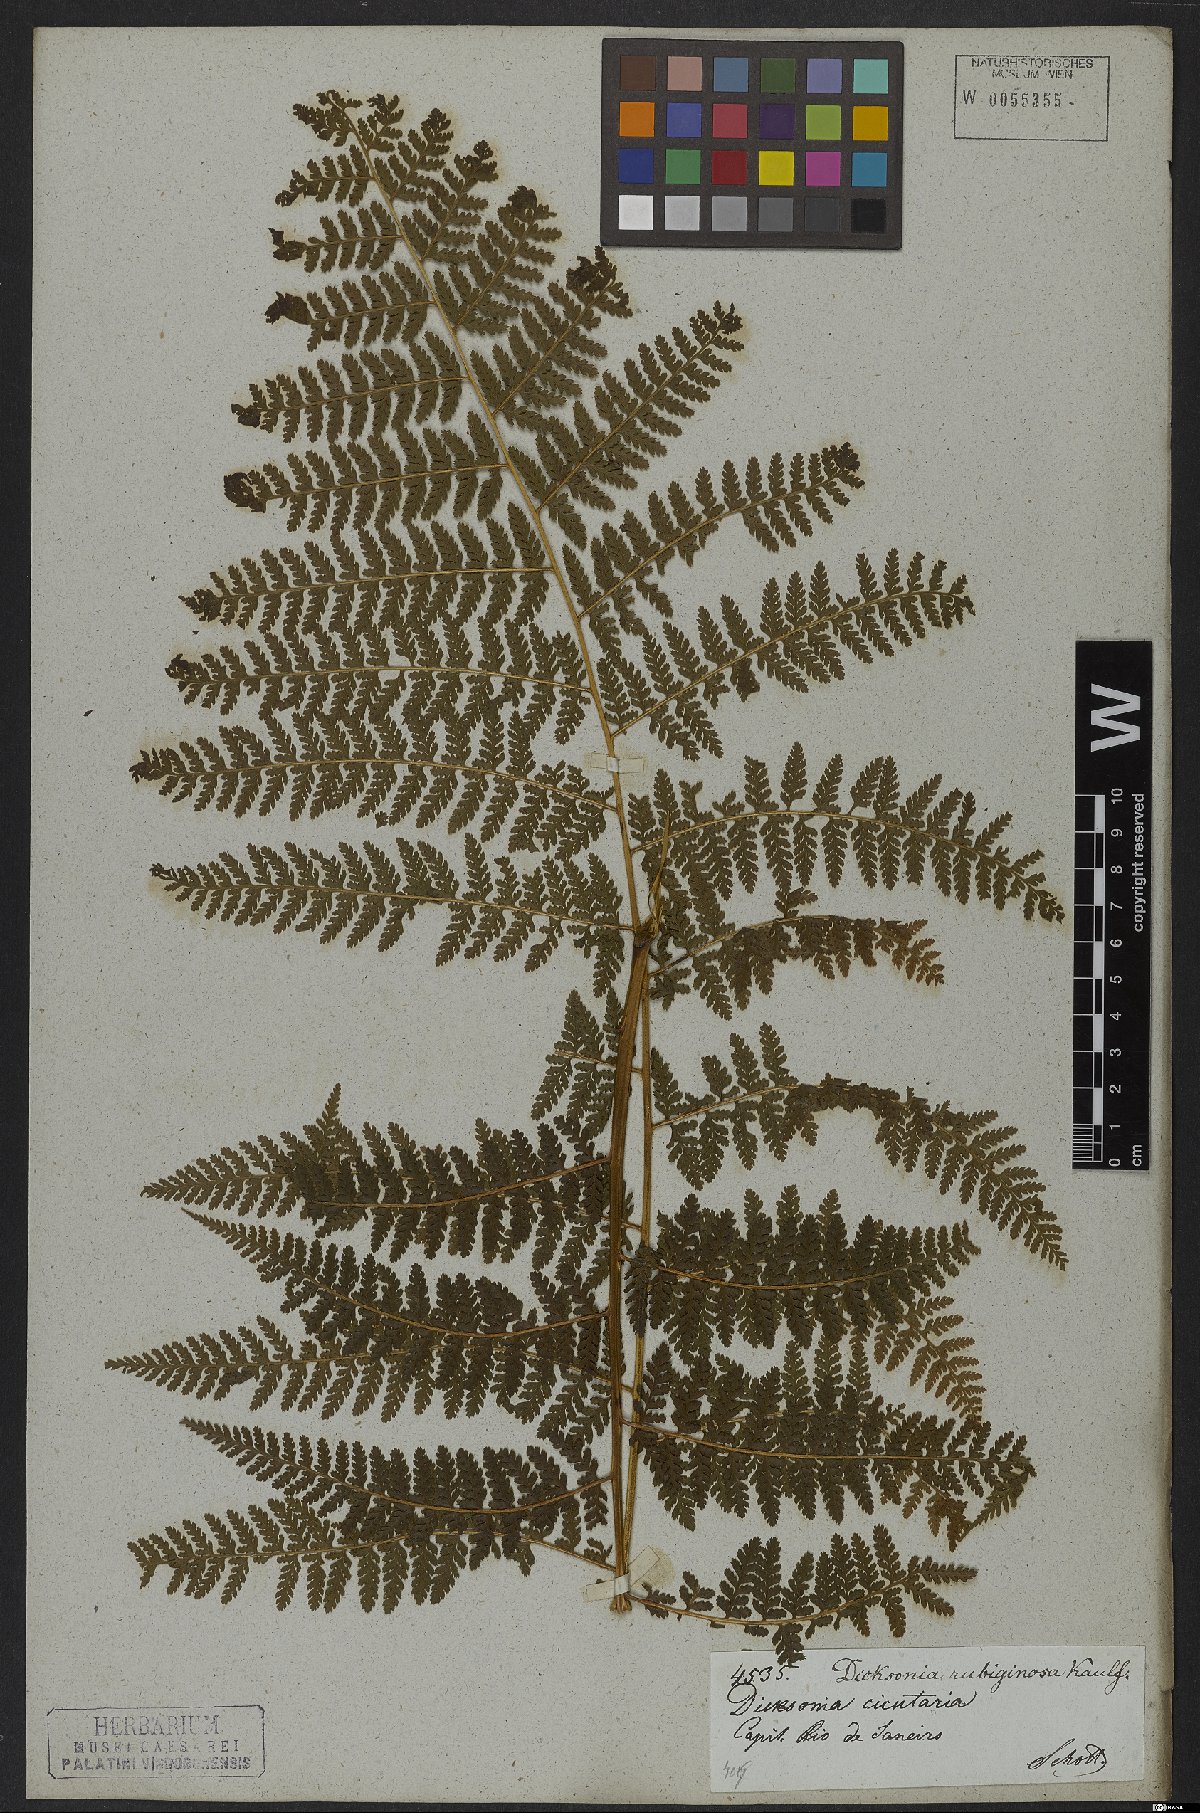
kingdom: Plantae
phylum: Tracheophyta
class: Polypodiopsida
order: Polypodiales
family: Dennstaedtiaceae
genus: Dennstaedtia
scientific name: Dennstaedtia cicutaria
